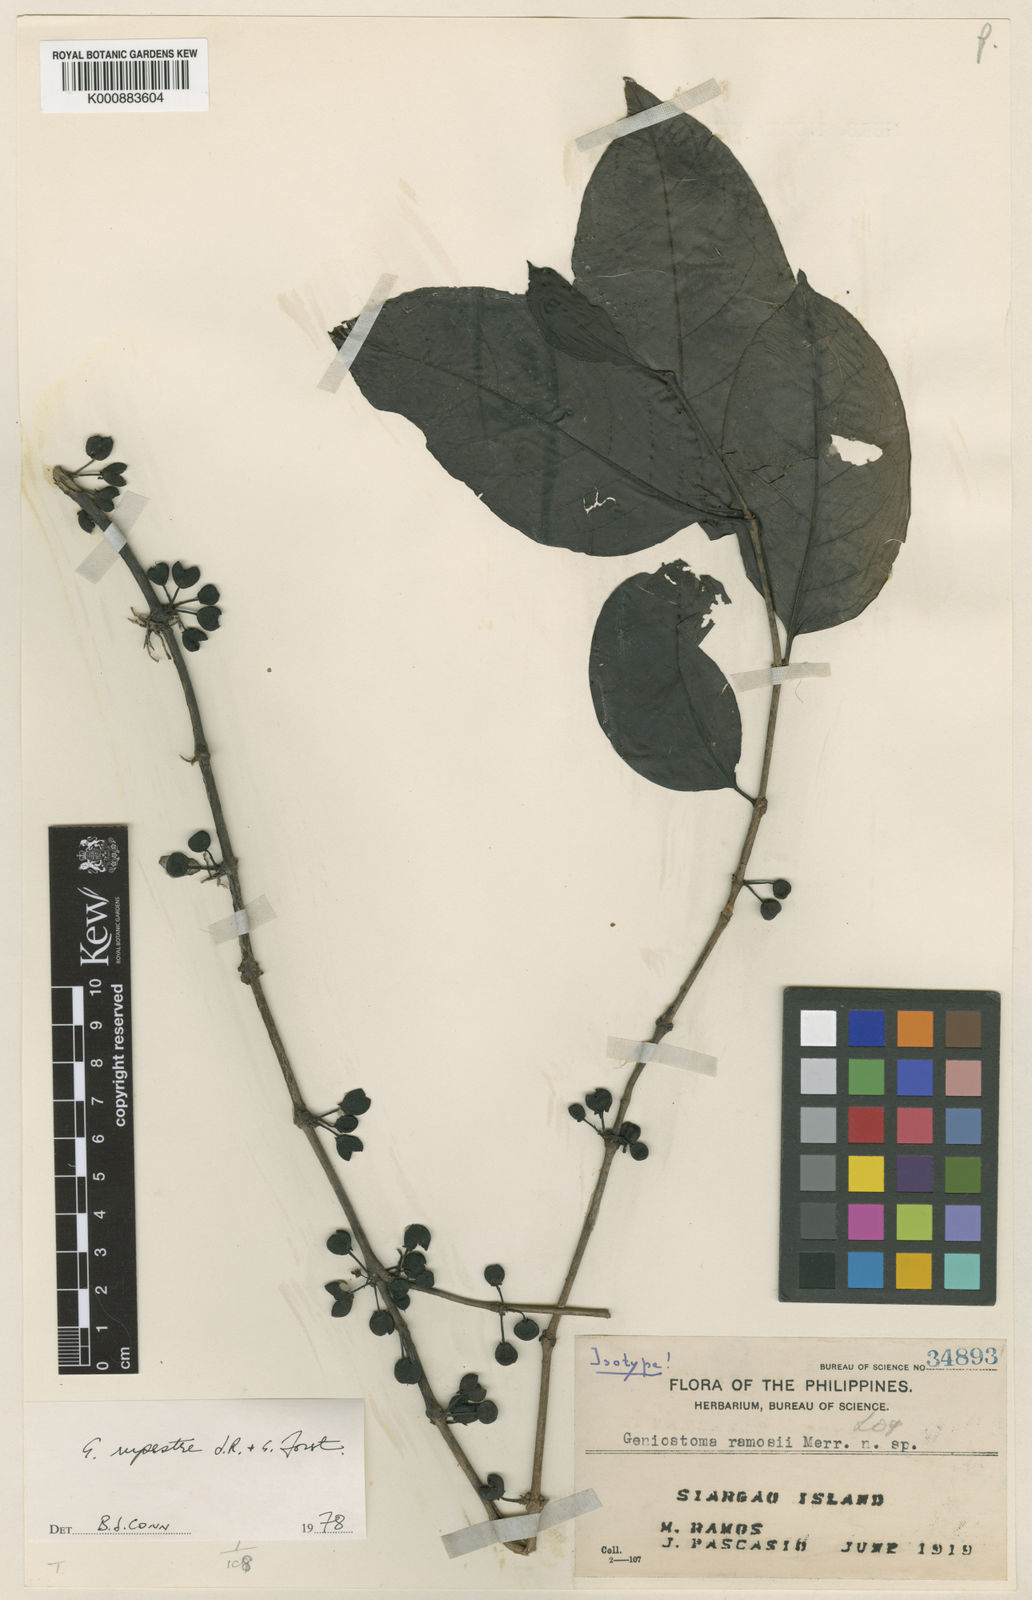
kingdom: Plantae
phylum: Tracheophyta
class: Magnoliopsida
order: Gentianales
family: Loganiaceae
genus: Geniostoma
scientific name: Geniostoma rupestre
